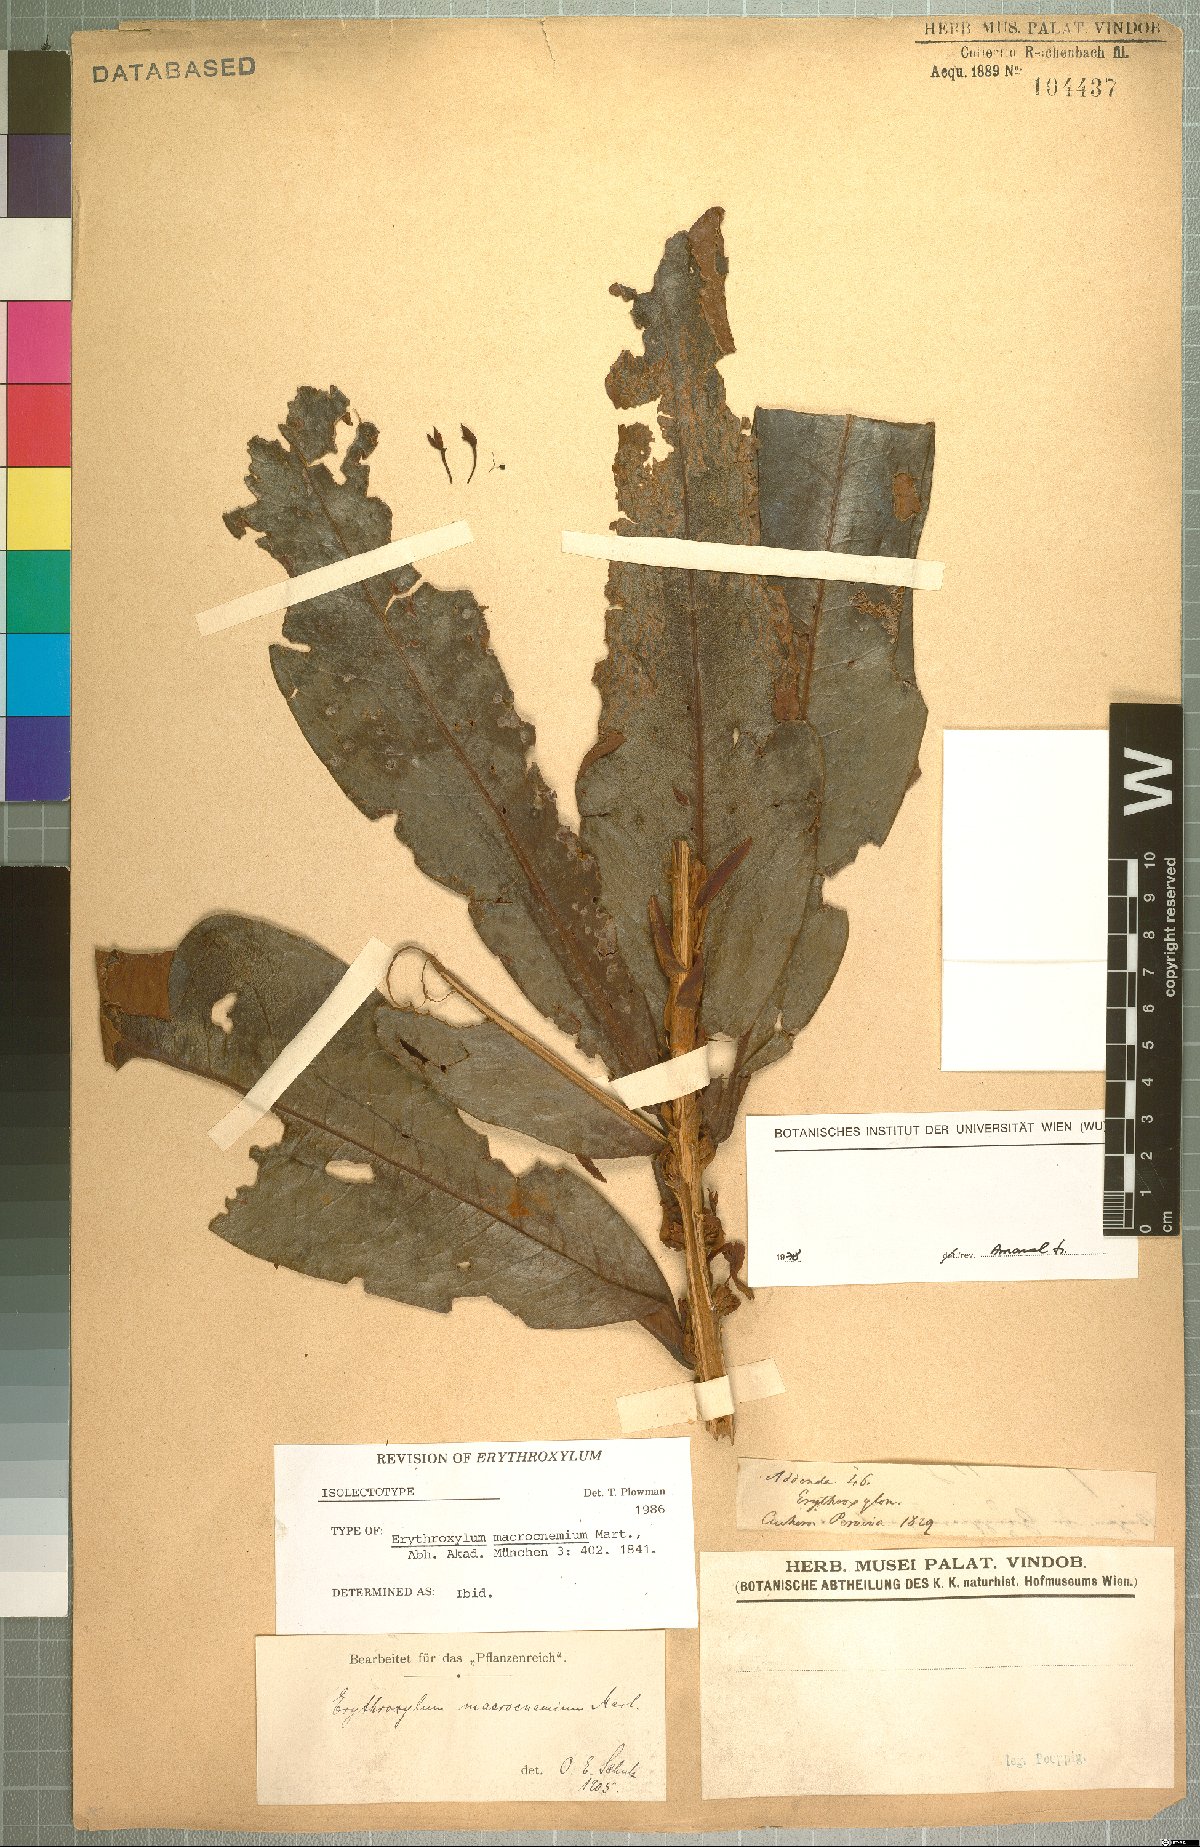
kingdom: Plantae
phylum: Tracheophyta
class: Magnoliopsida
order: Malpighiales
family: Erythroxylaceae
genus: Erythroxylum
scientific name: Erythroxylum macrophyllum
